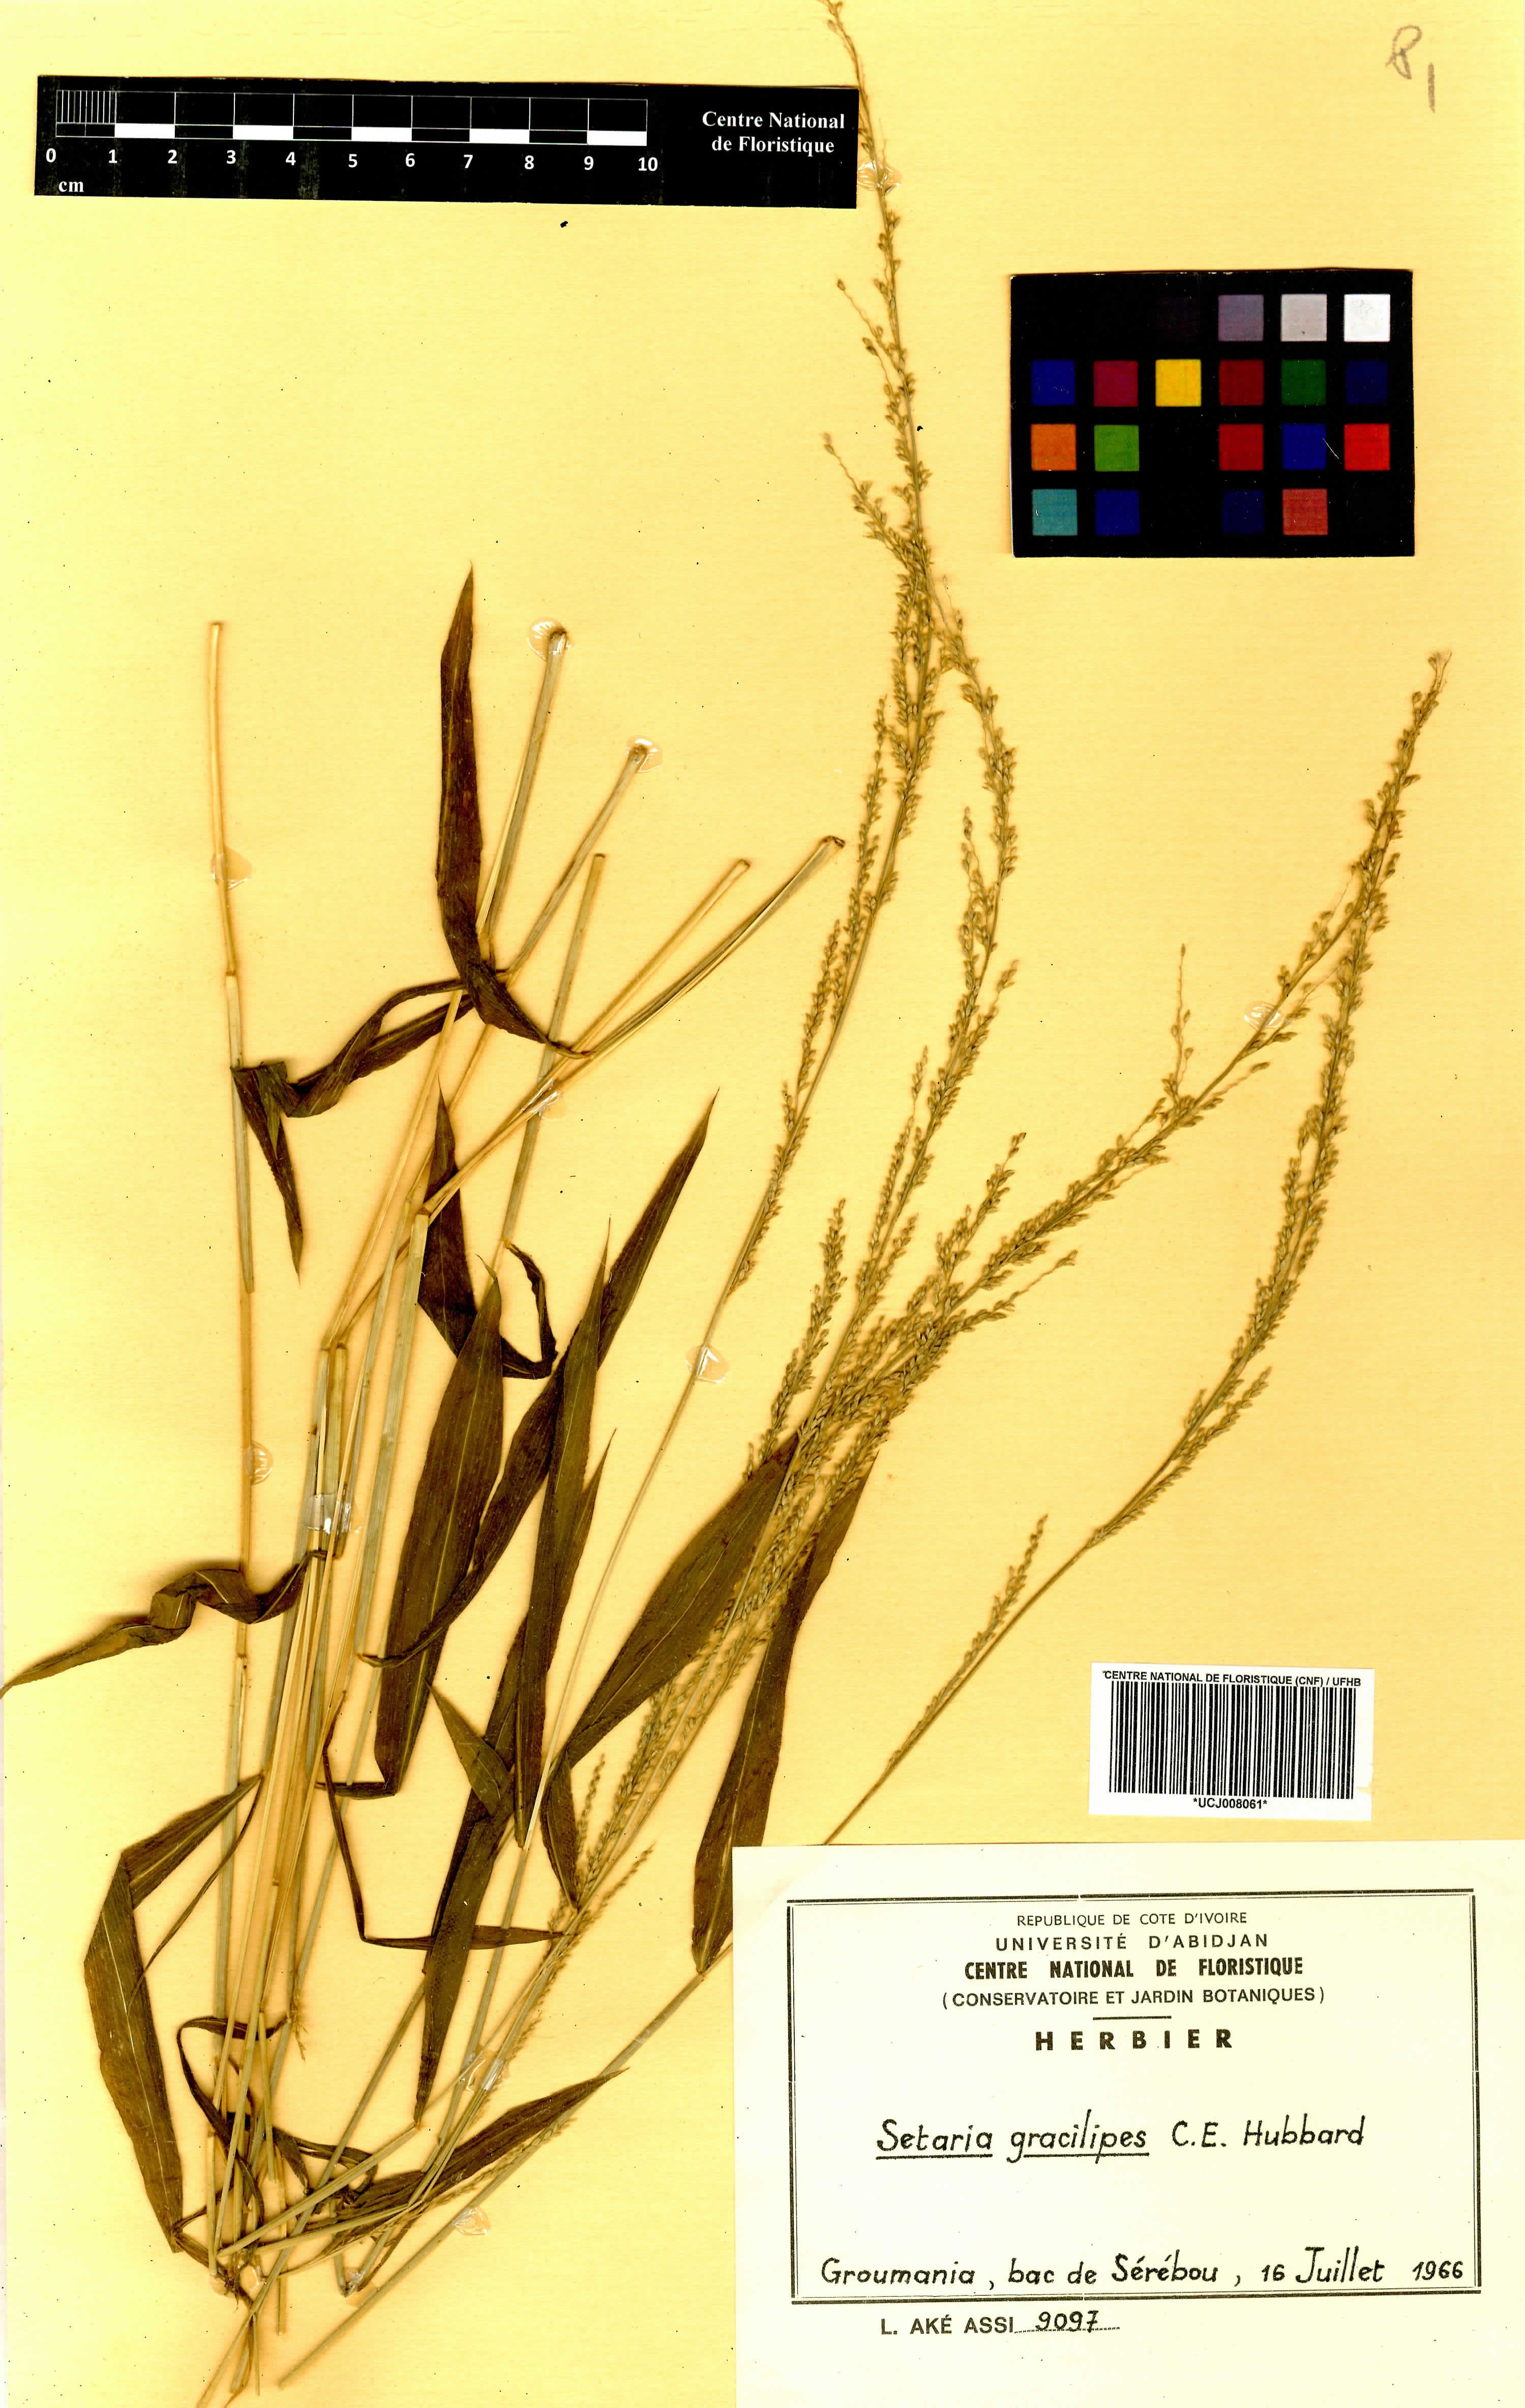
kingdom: Plantae
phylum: Tracheophyta
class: Liliopsida
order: Poales
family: Poaceae
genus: Setaria
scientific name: Setaria barbata
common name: East indian bristlegrass
